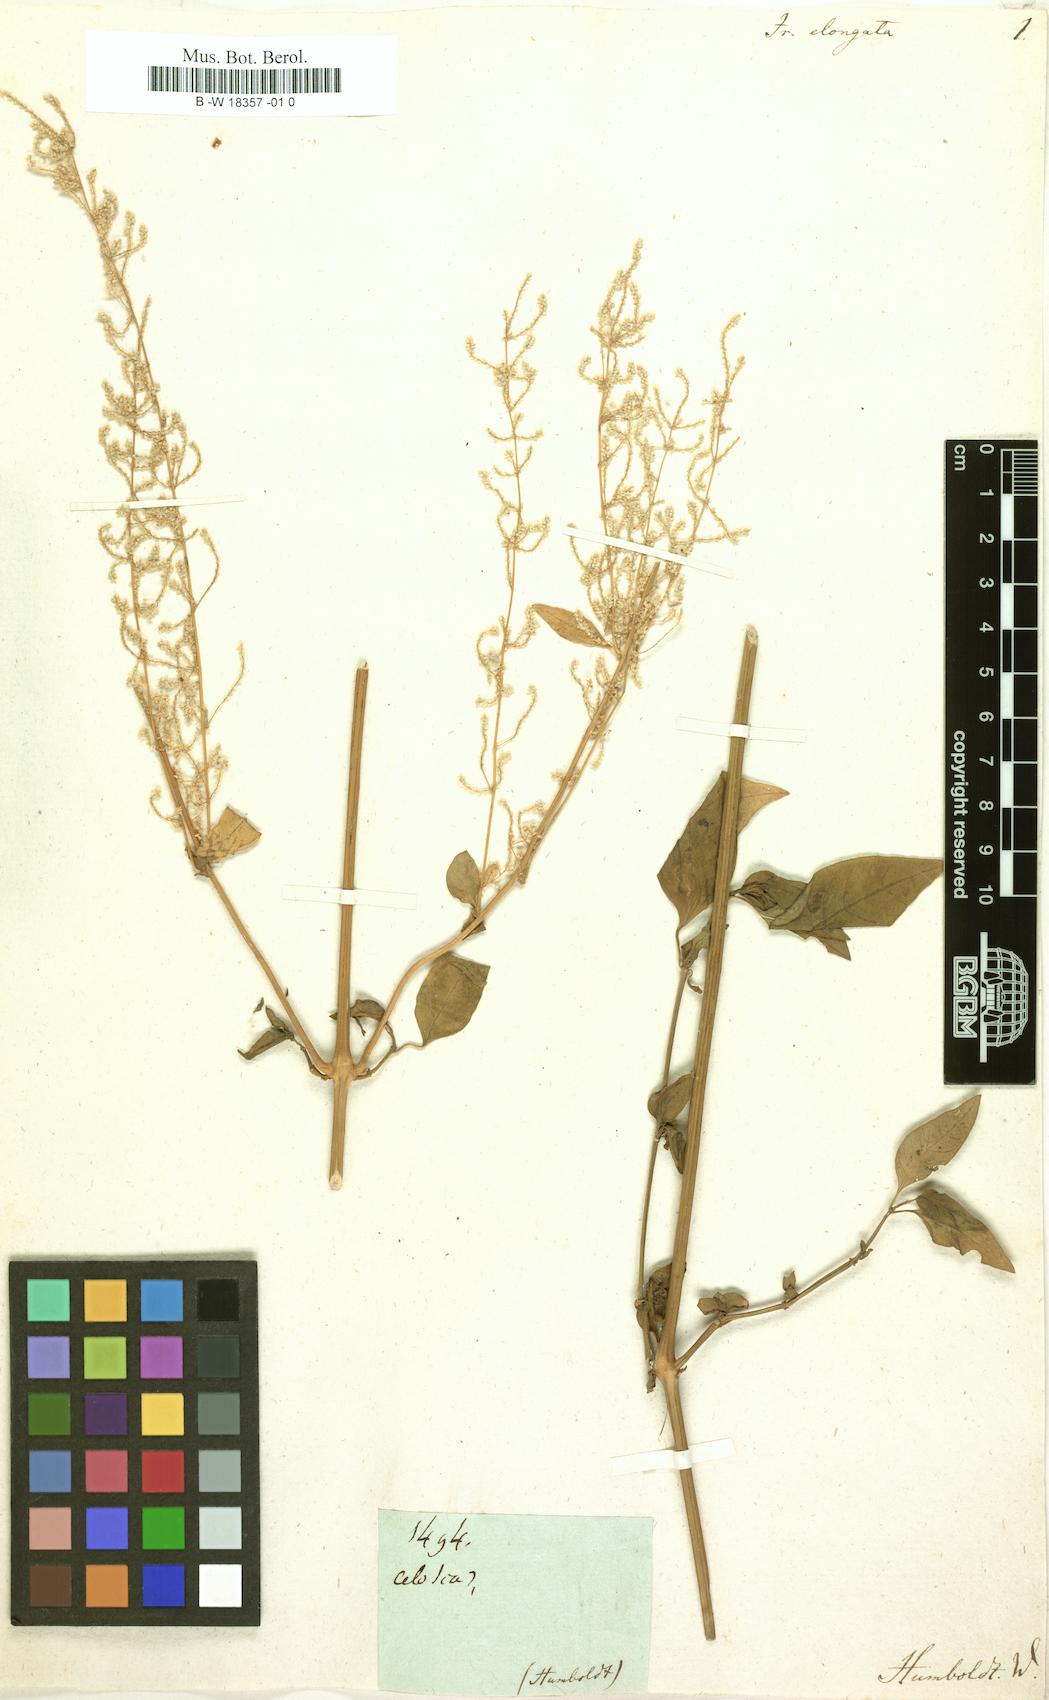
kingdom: Plantae
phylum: Tracheophyta
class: Magnoliopsida
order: Caryophyllales
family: Amaranthaceae
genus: Iresine
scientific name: Iresine
